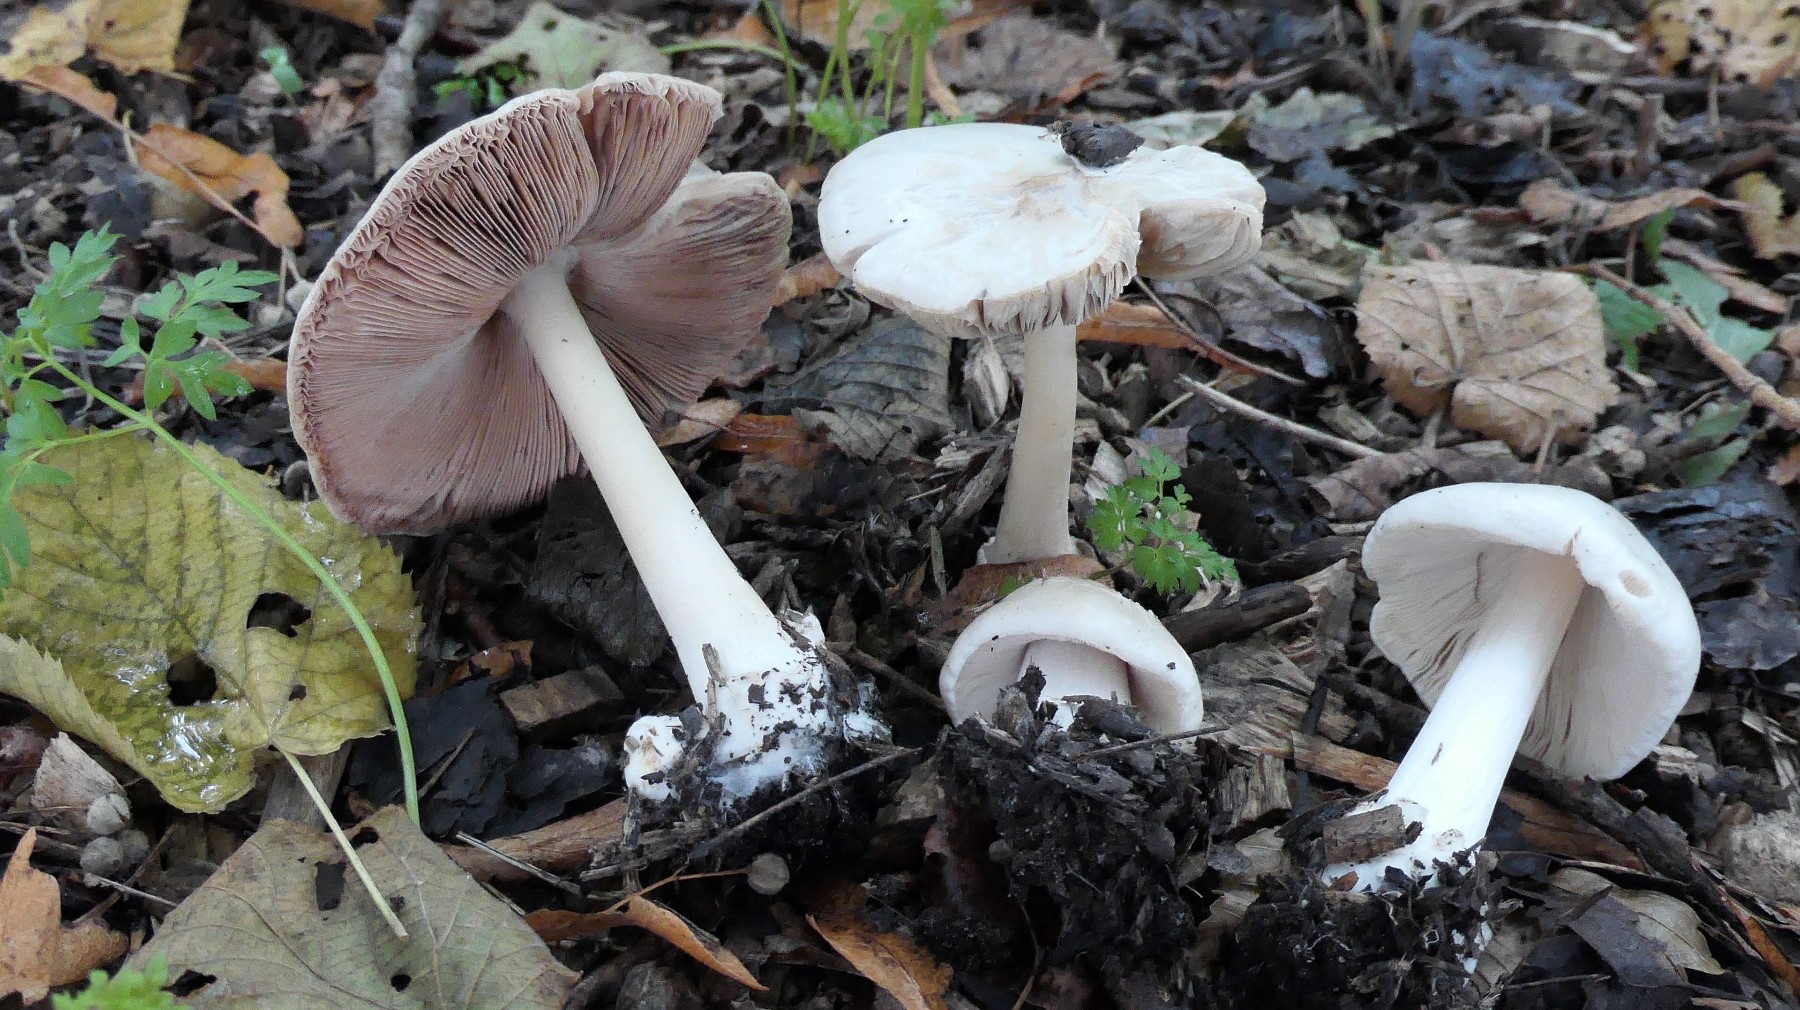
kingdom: Fungi
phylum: Basidiomycota
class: Agaricomycetes
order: Agaricales
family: Pluteaceae
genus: Volvopluteus
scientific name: Volvopluteus gloiocephalus
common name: høj posesvamp
